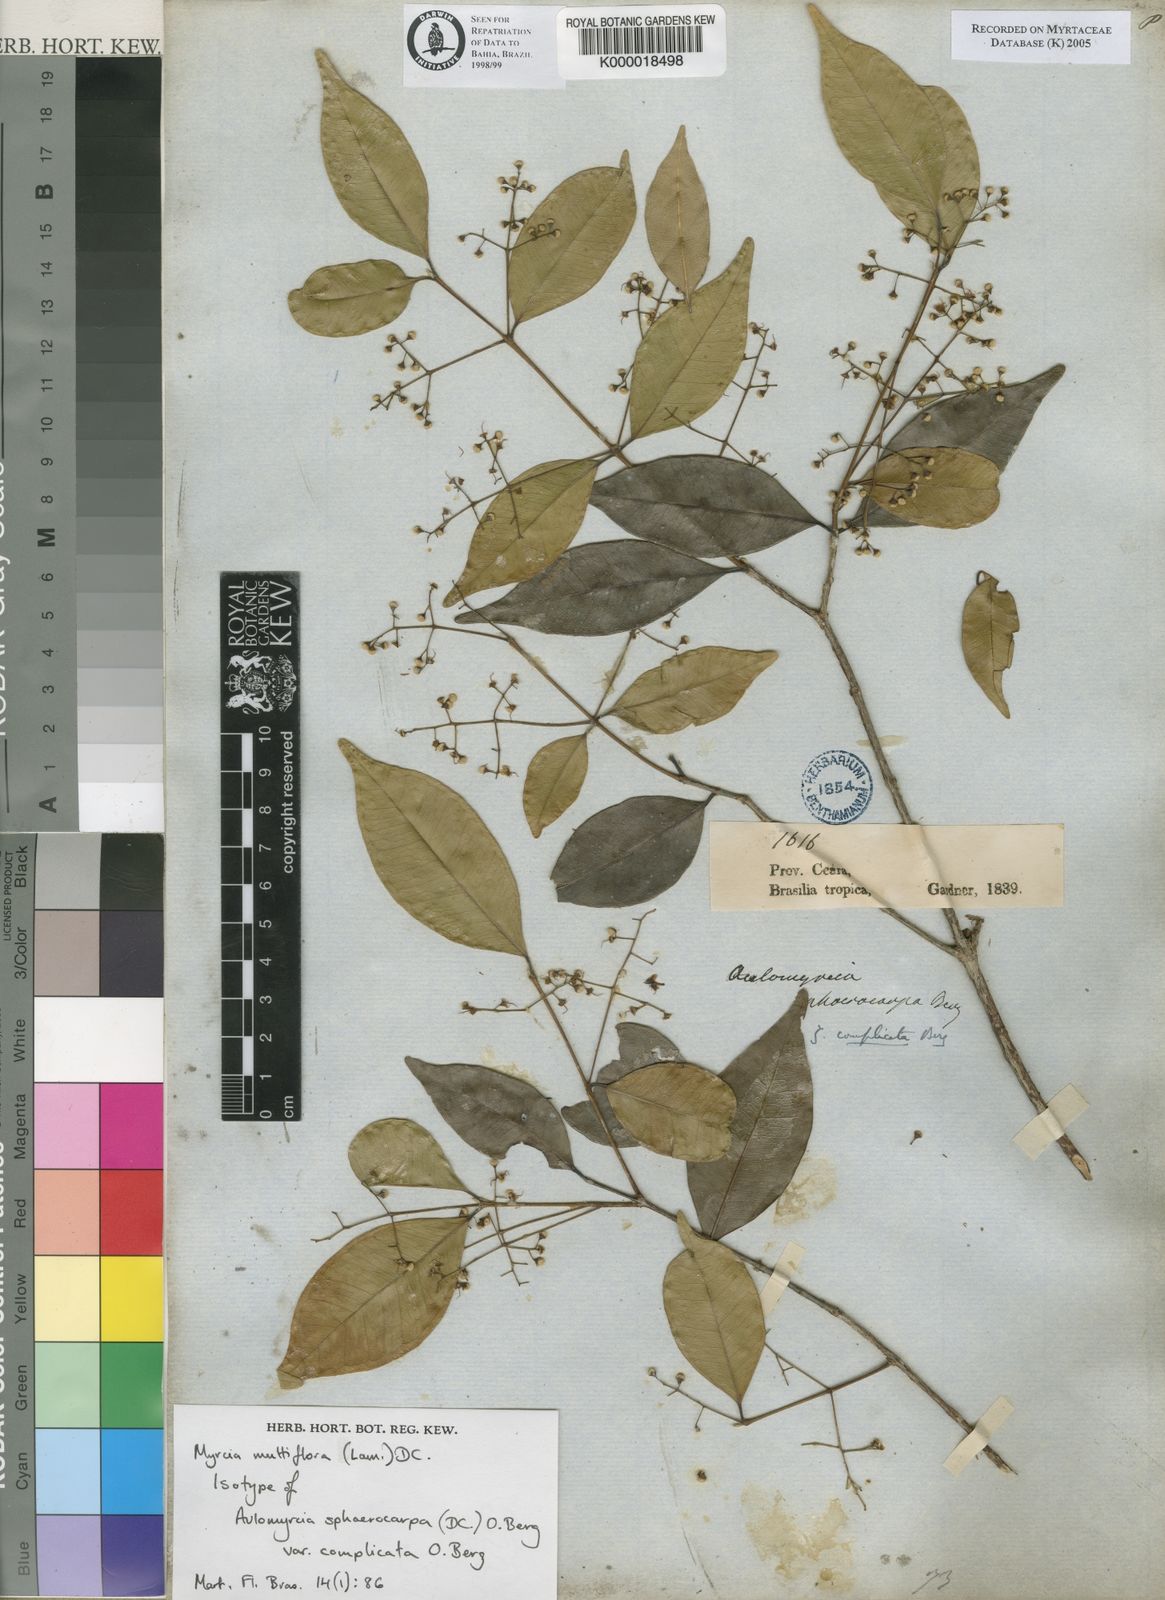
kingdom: Plantae
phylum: Tracheophyta
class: Magnoliopsida
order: Myrtales
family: Myrtaceae
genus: Myrcia
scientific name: Myrcia multiflora
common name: Pedra hume
